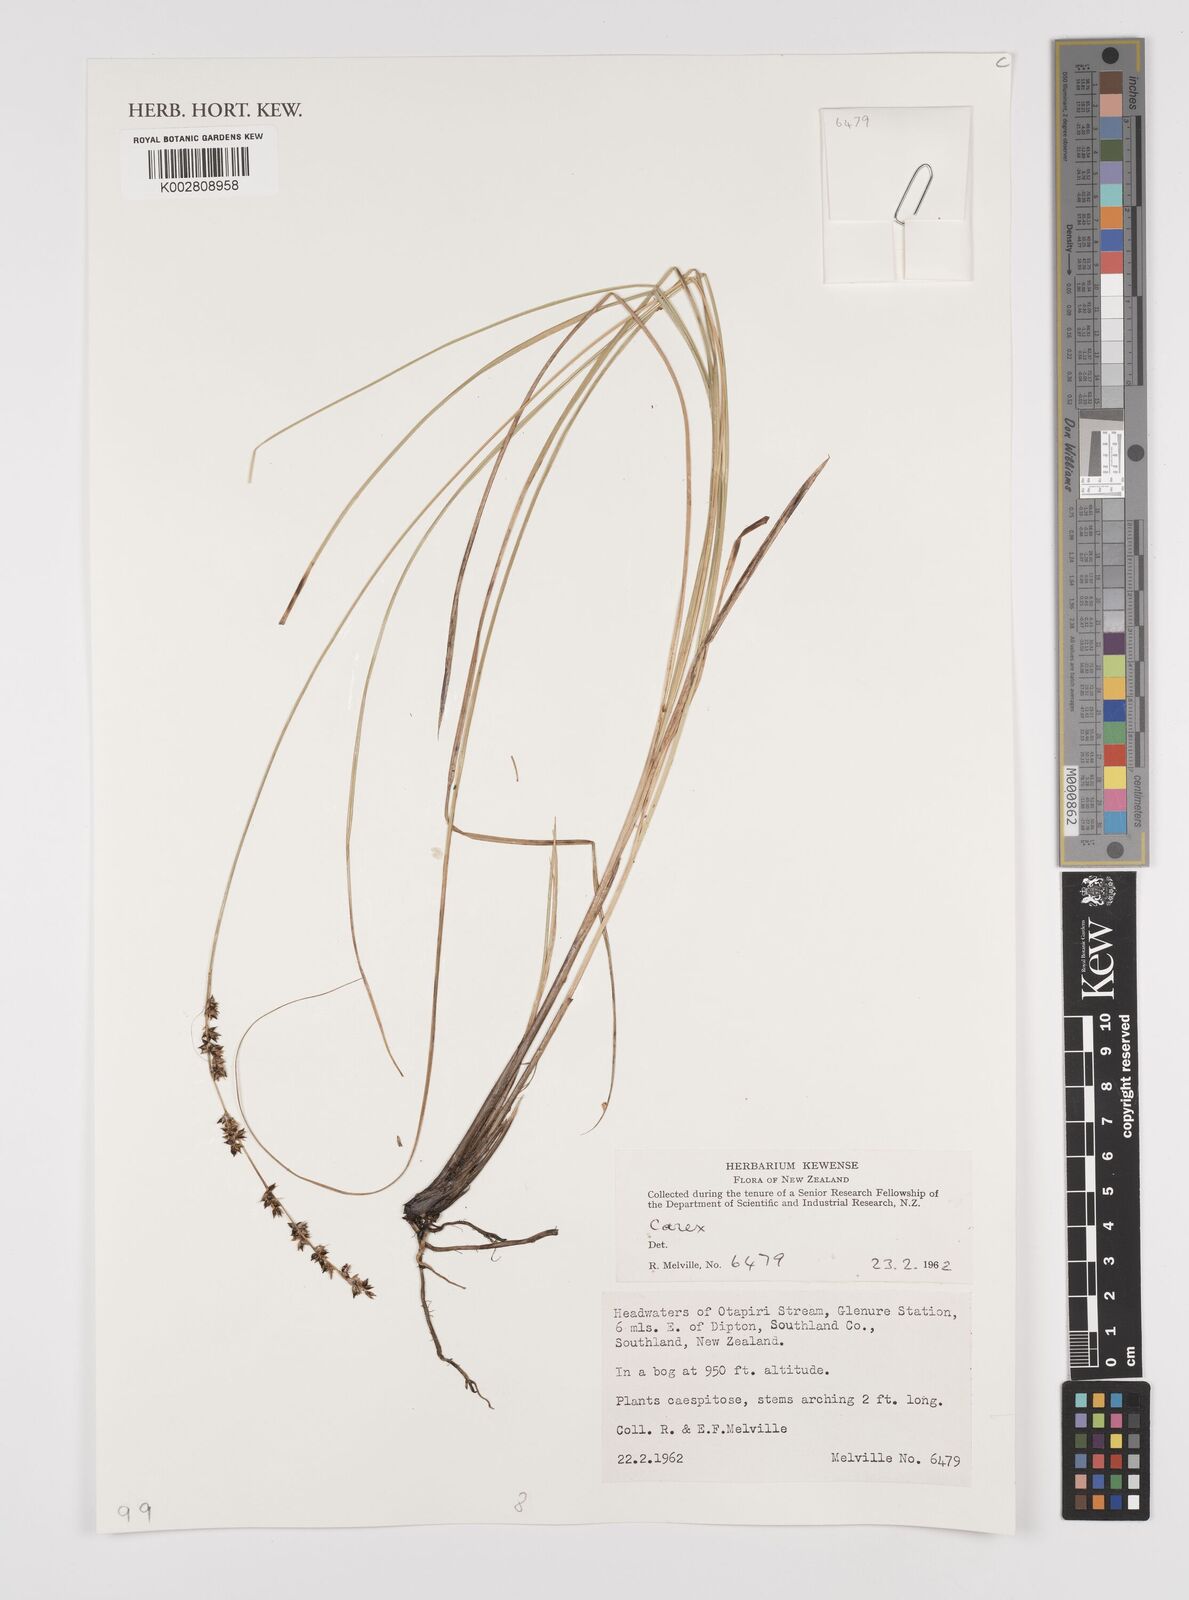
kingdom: Plantae
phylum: Tracheophyta
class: Liliopsida
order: Poales
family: Cyperaceae
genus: Carex
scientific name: Carex
